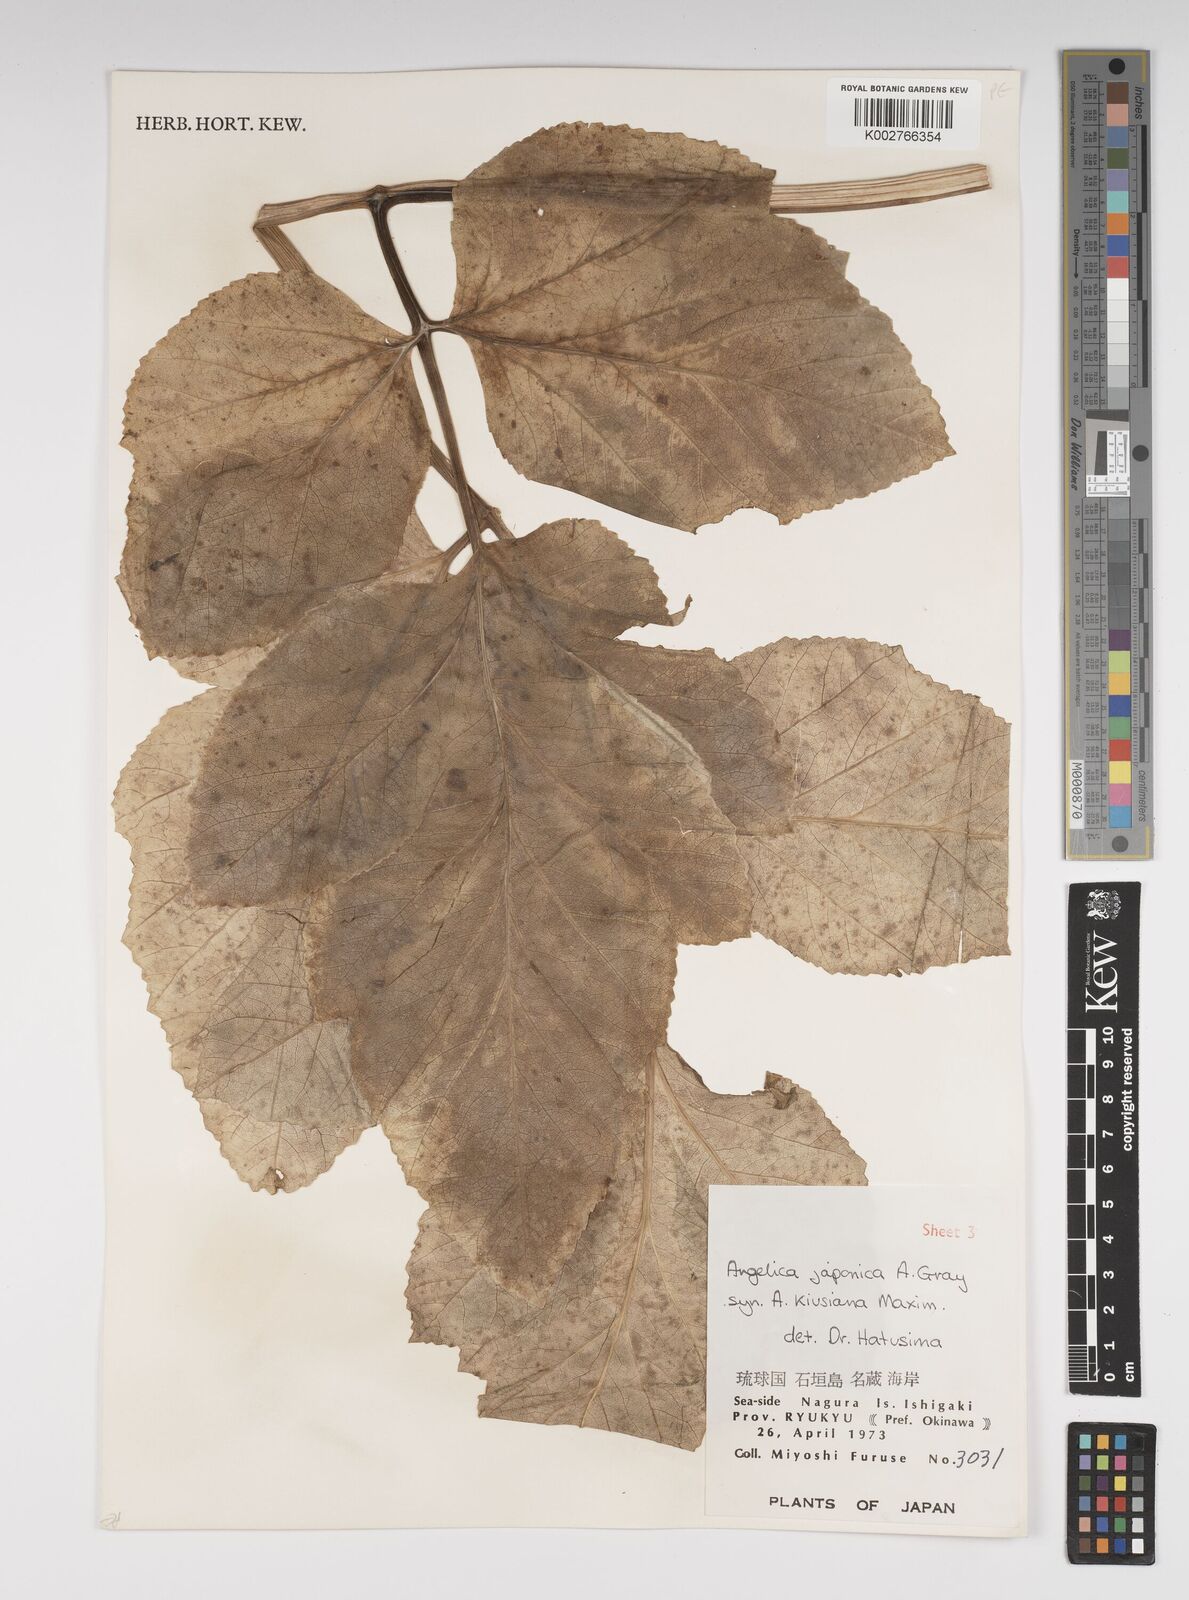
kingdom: Plantae
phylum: Tracheophyta
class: Magnoliopsida
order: Apiales
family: Apiaceae
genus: Angelica
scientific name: Angelica
